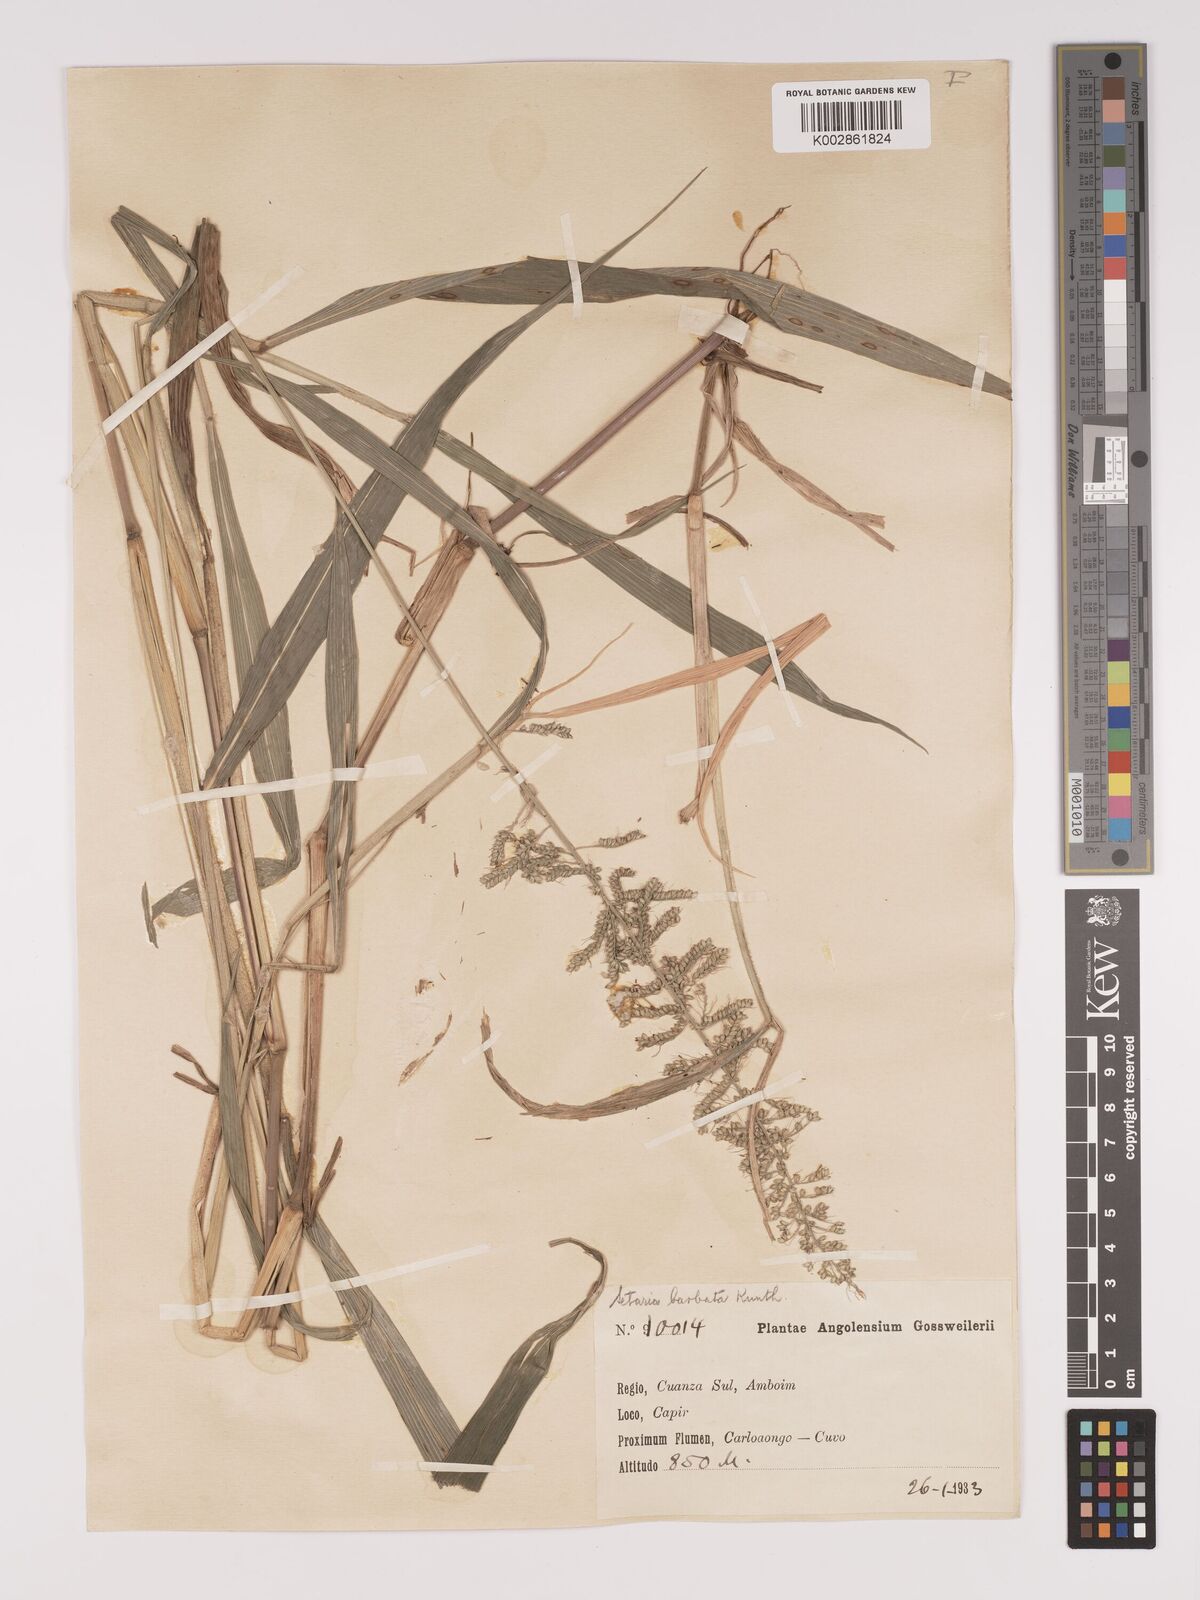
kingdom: Plantae
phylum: Tracheophyta
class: Liliopsida
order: Poales
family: Poaceae
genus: Setaria
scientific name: Setaria barbata
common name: East indian bristlegrass
